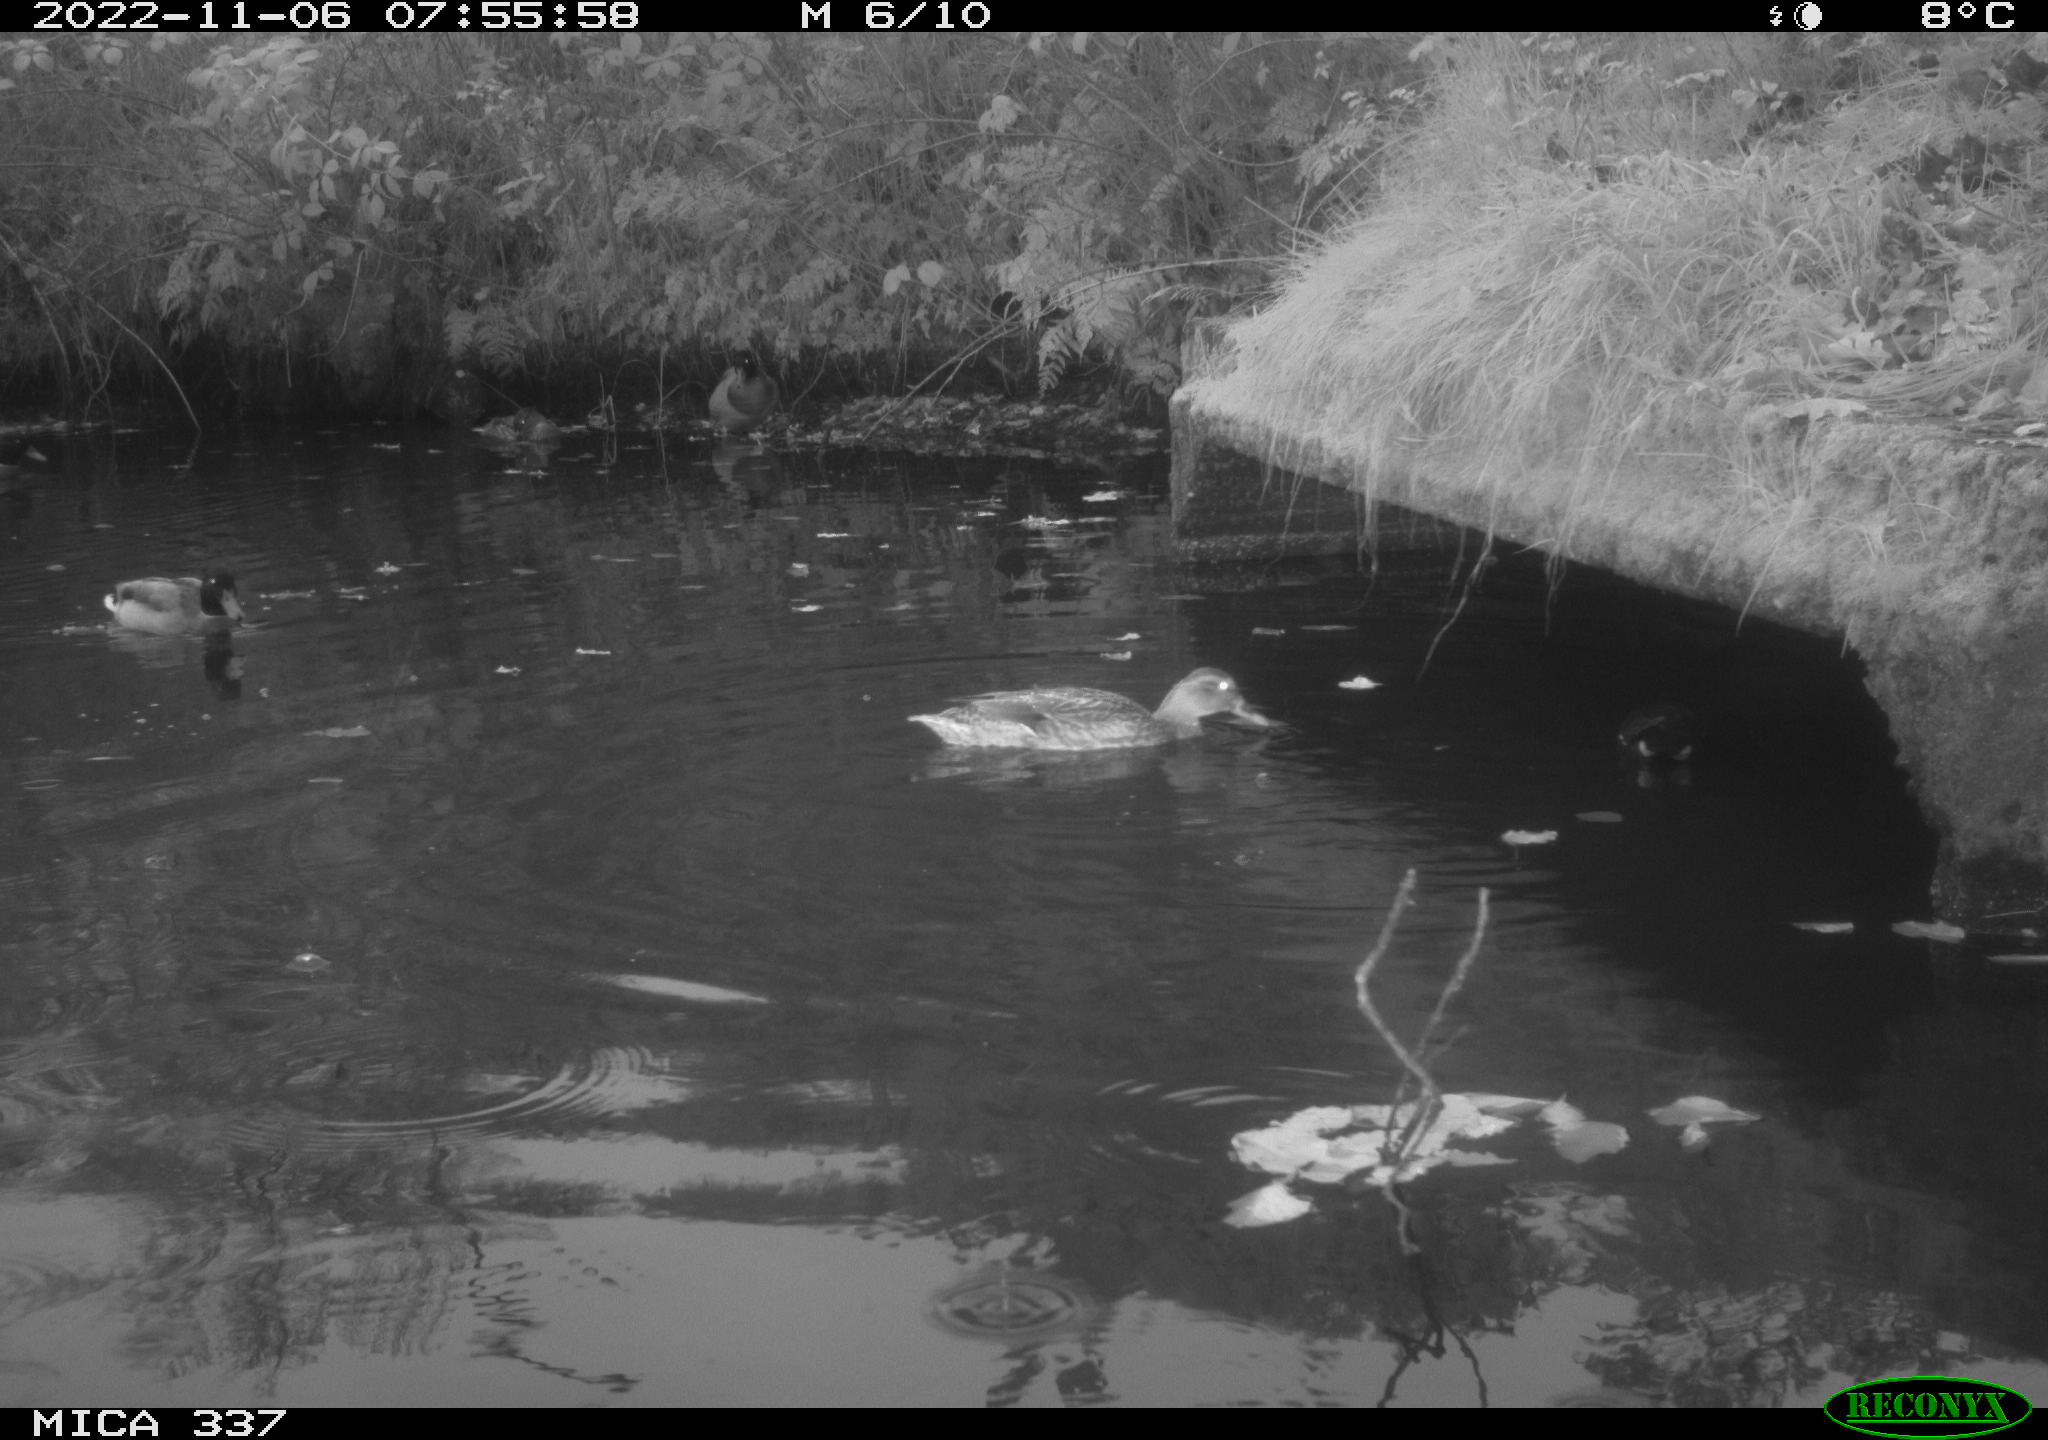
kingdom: Animalia
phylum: Chordata
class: Aves
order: Anseriformes
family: Anatidae
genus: Anas
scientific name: Anas platyrhynchos
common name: Mallard
